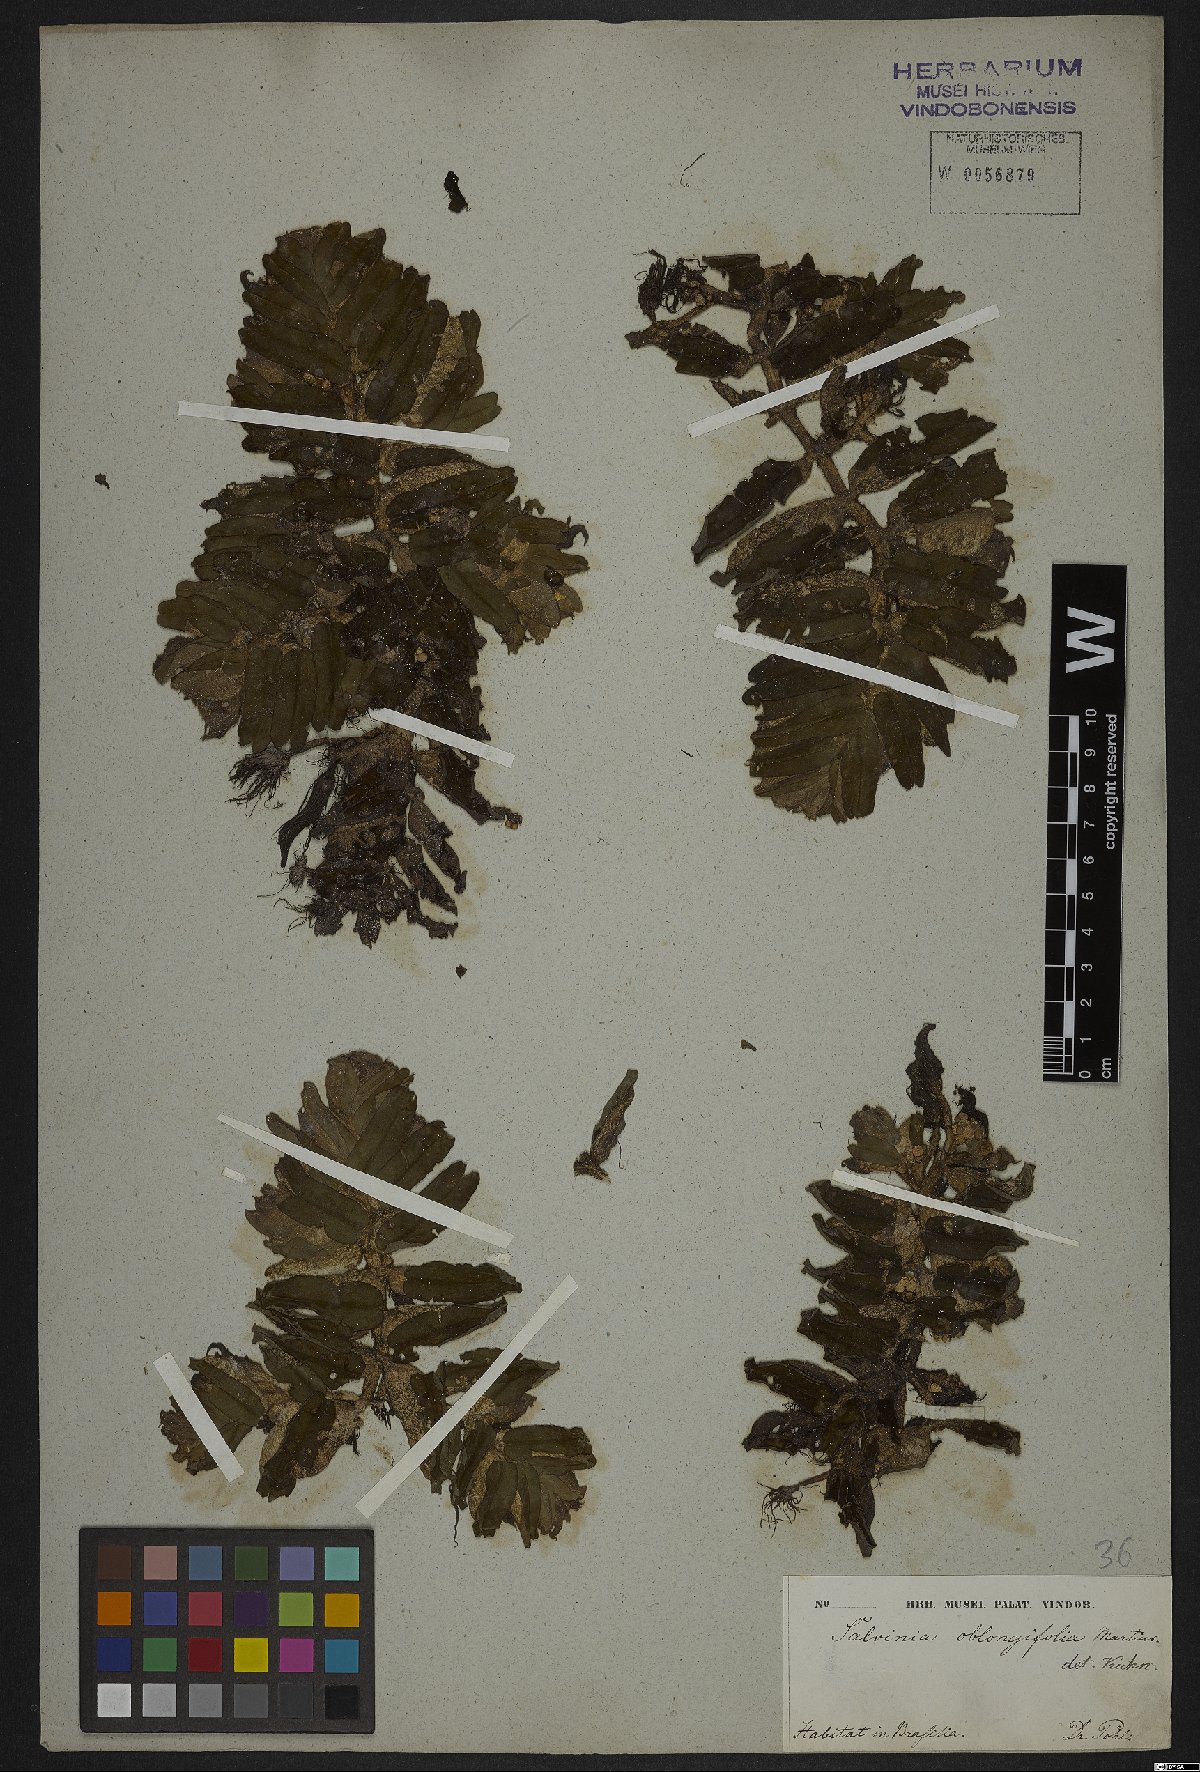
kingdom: Plantae
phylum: Tracheophyta
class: Polypodiopsida
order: Salviniales
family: Salviniaceae
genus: Salvinia
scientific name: Salvinia oblongifolia
